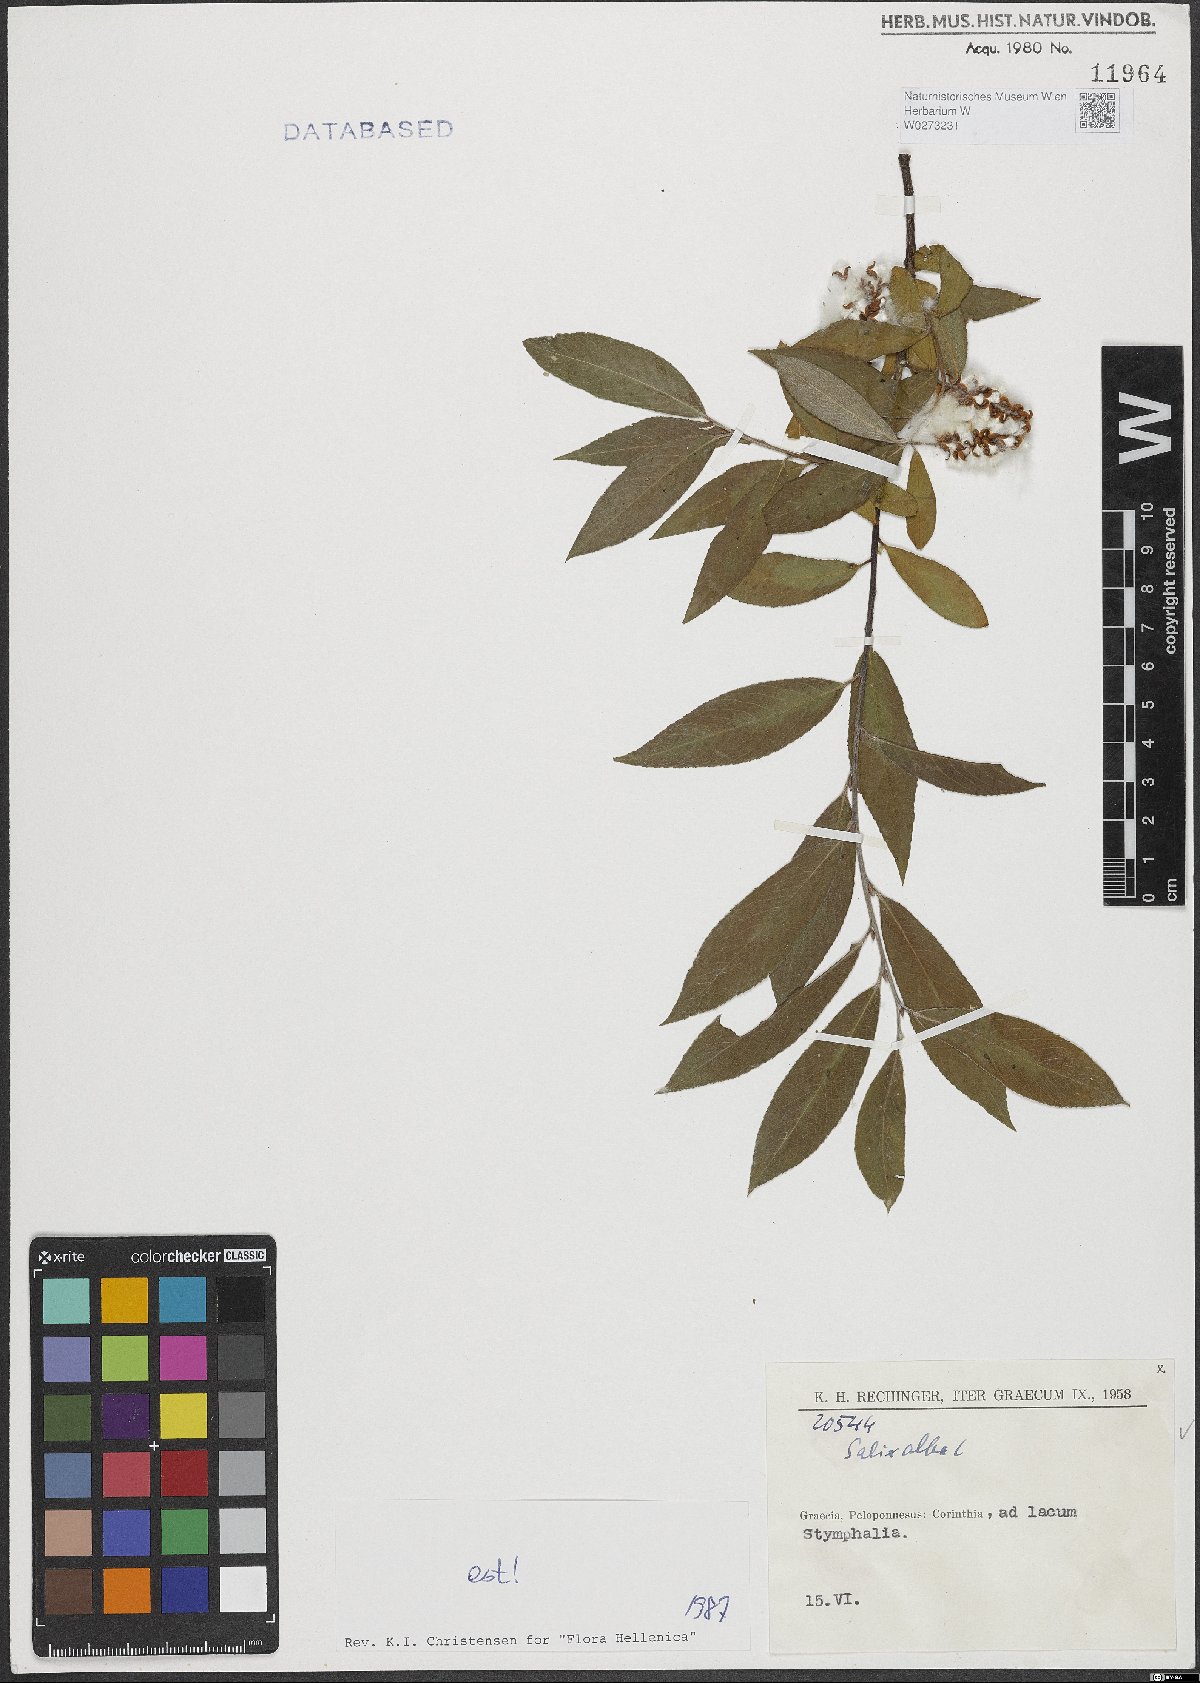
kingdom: Plantae
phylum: Tracheophyta
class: Magnoliopsida
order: Malpighiales
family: Salicaceae
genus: Salix
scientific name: Salix alba
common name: White willow
